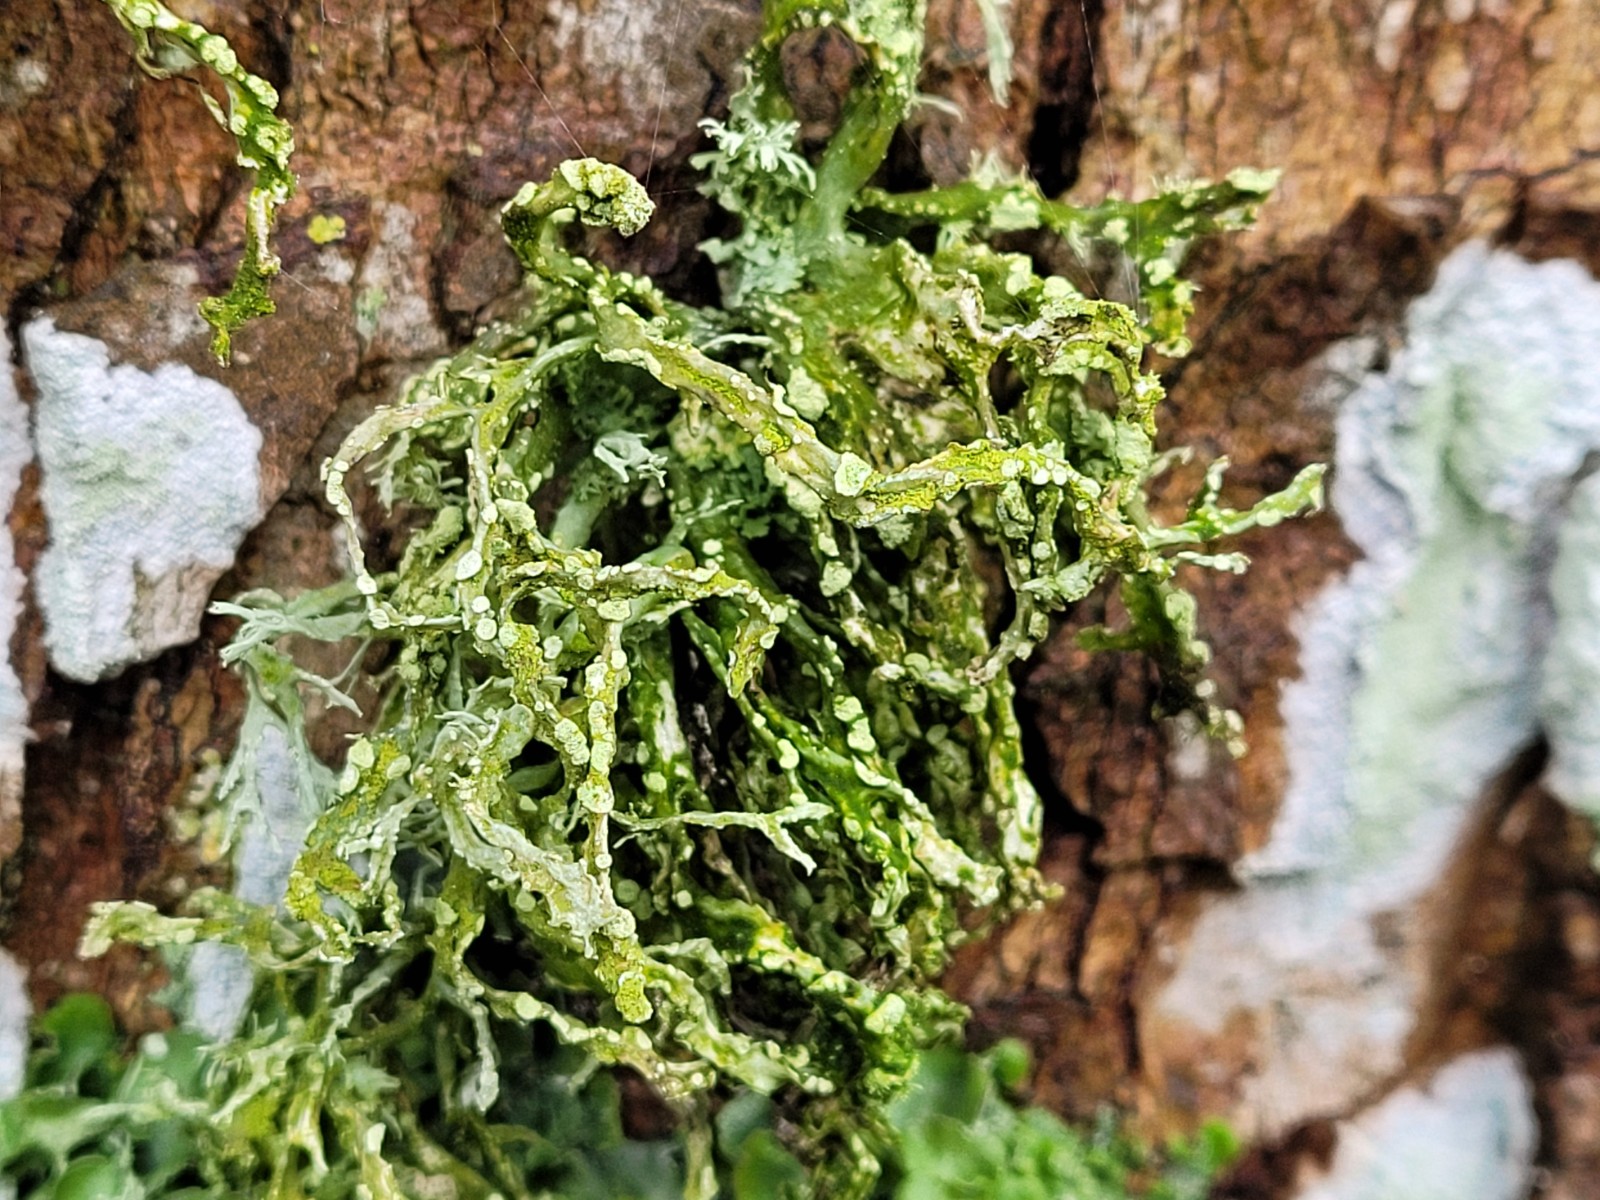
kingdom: Fungi
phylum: Ascomycota
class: Lecanoromycetes
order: Lecanorales
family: Ramalinaceae
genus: Ramalina
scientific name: Ramalina farinacea
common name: melet grenlav
